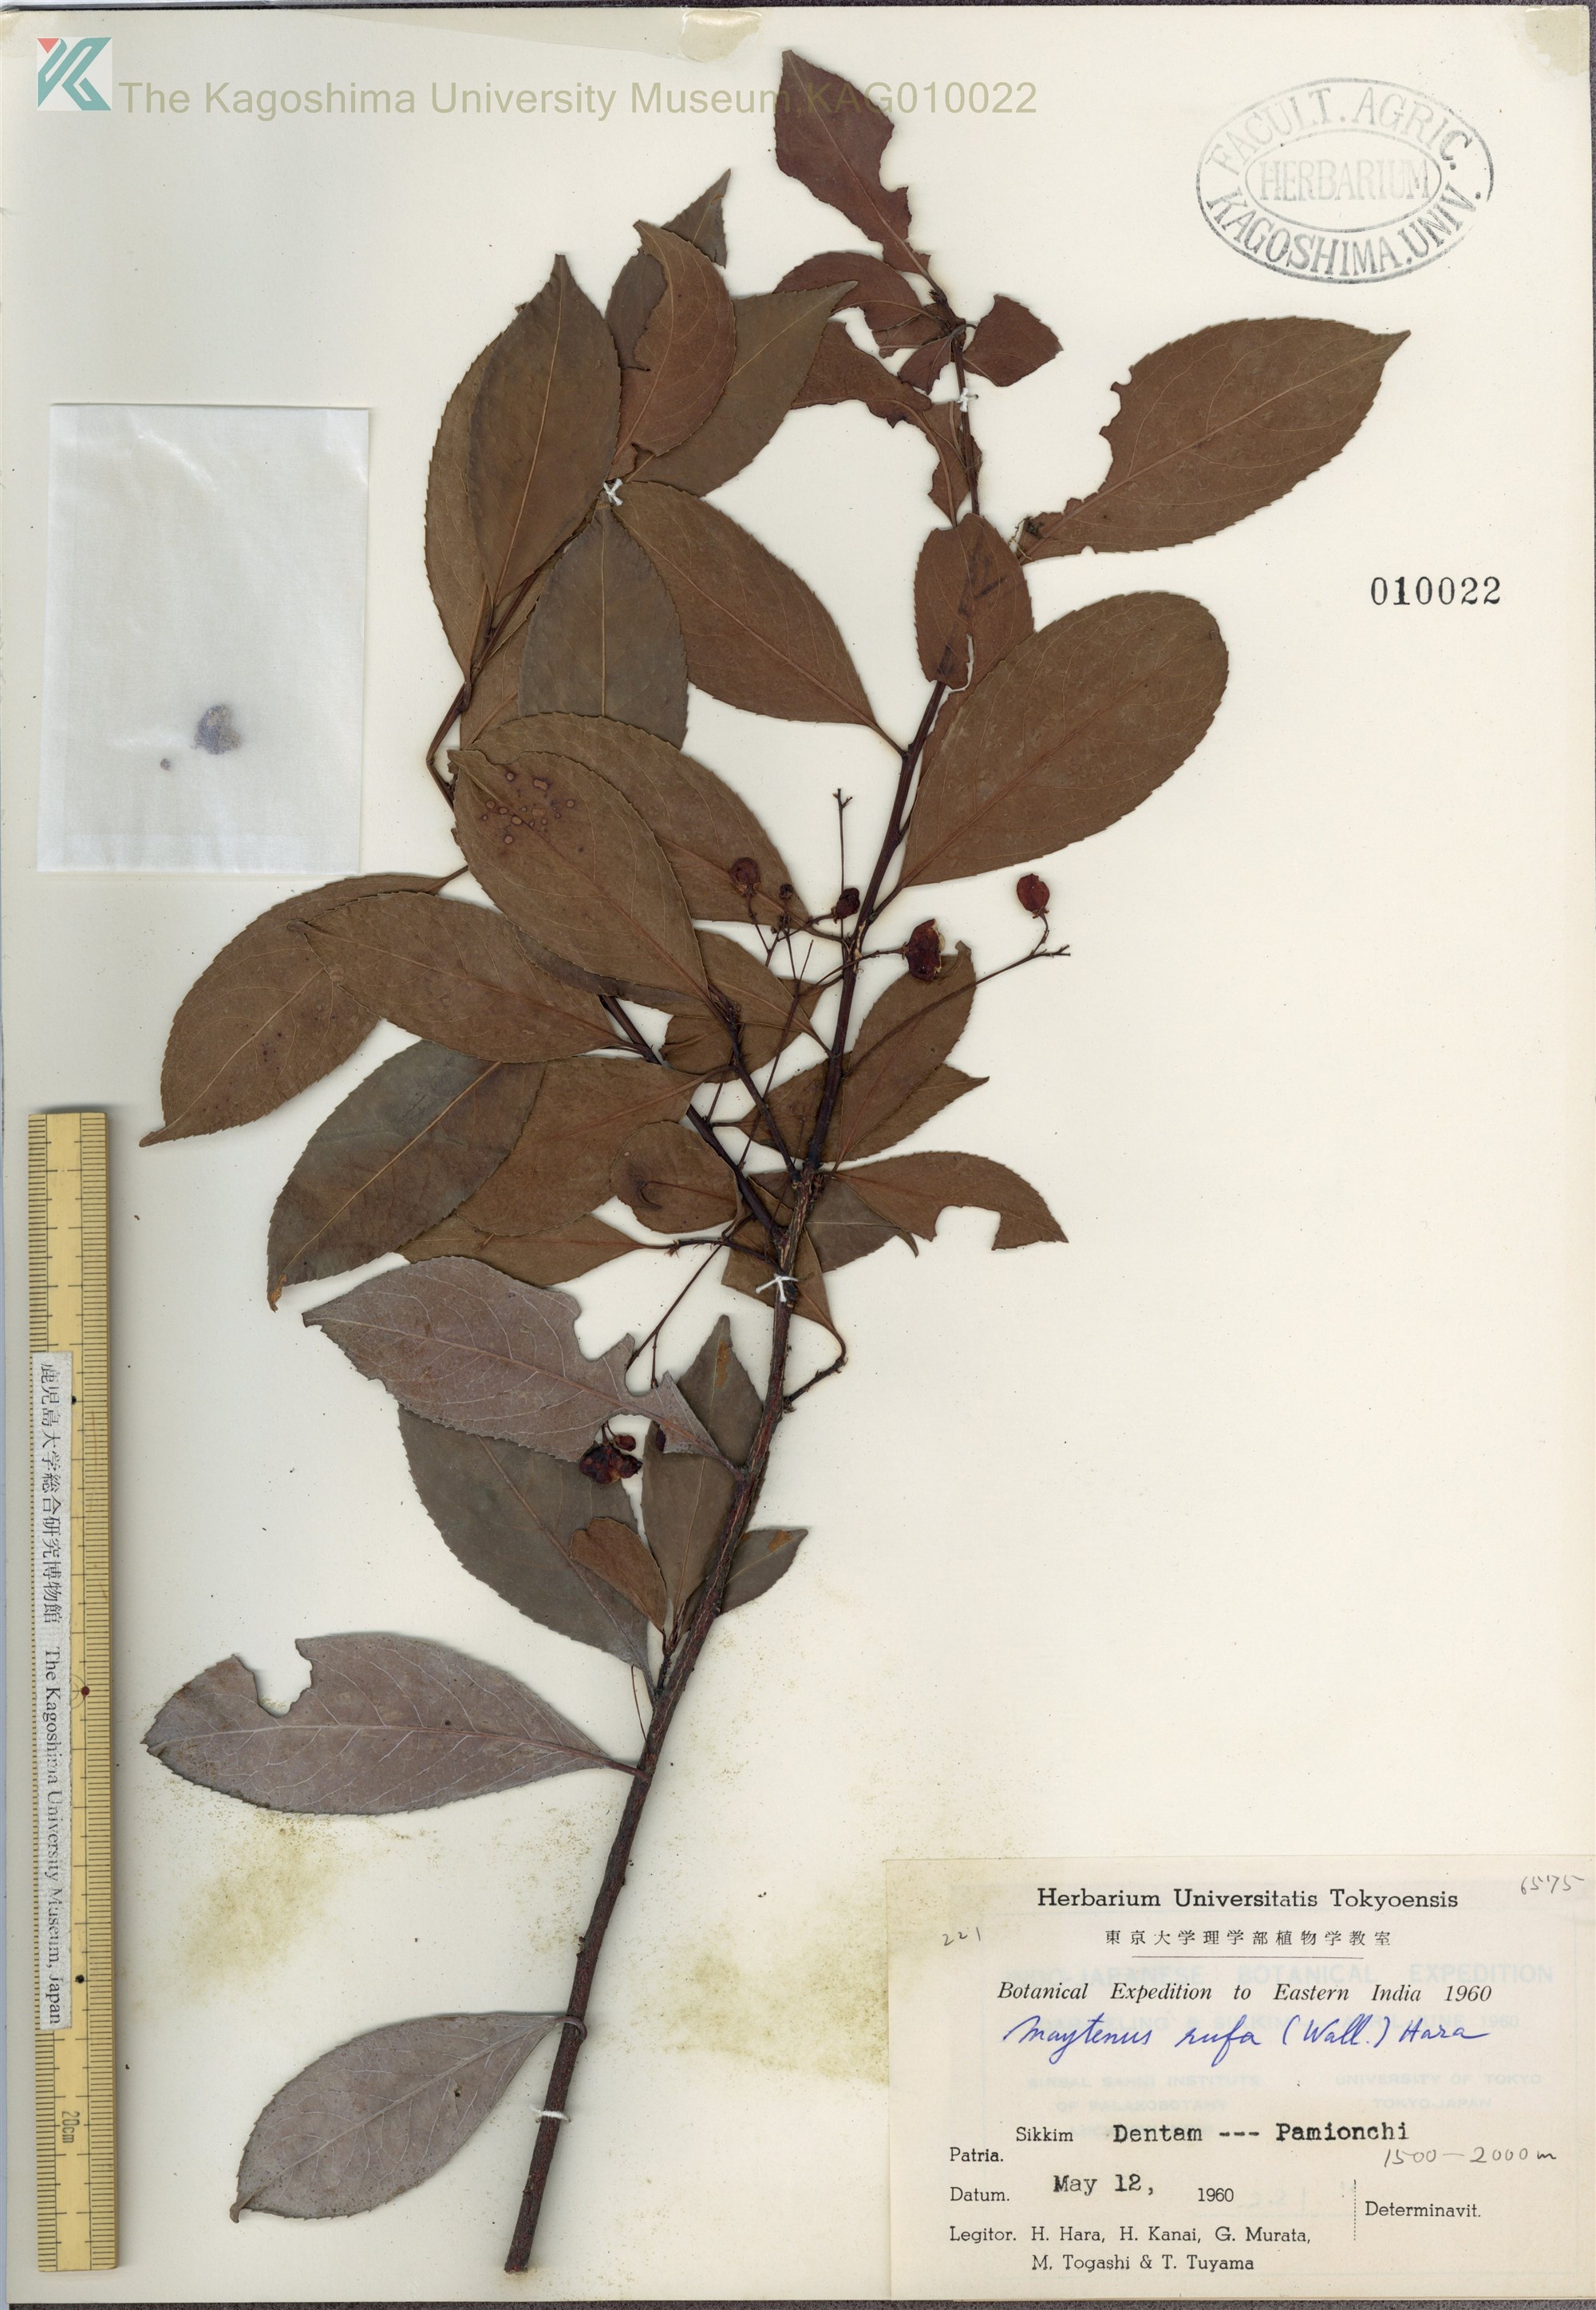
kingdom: Plantae
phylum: Tracheophyta
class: Magnoliopsida
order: Celastrales
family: Celastraceae
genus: Gymnosporia
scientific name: Gymnosporia rufa
